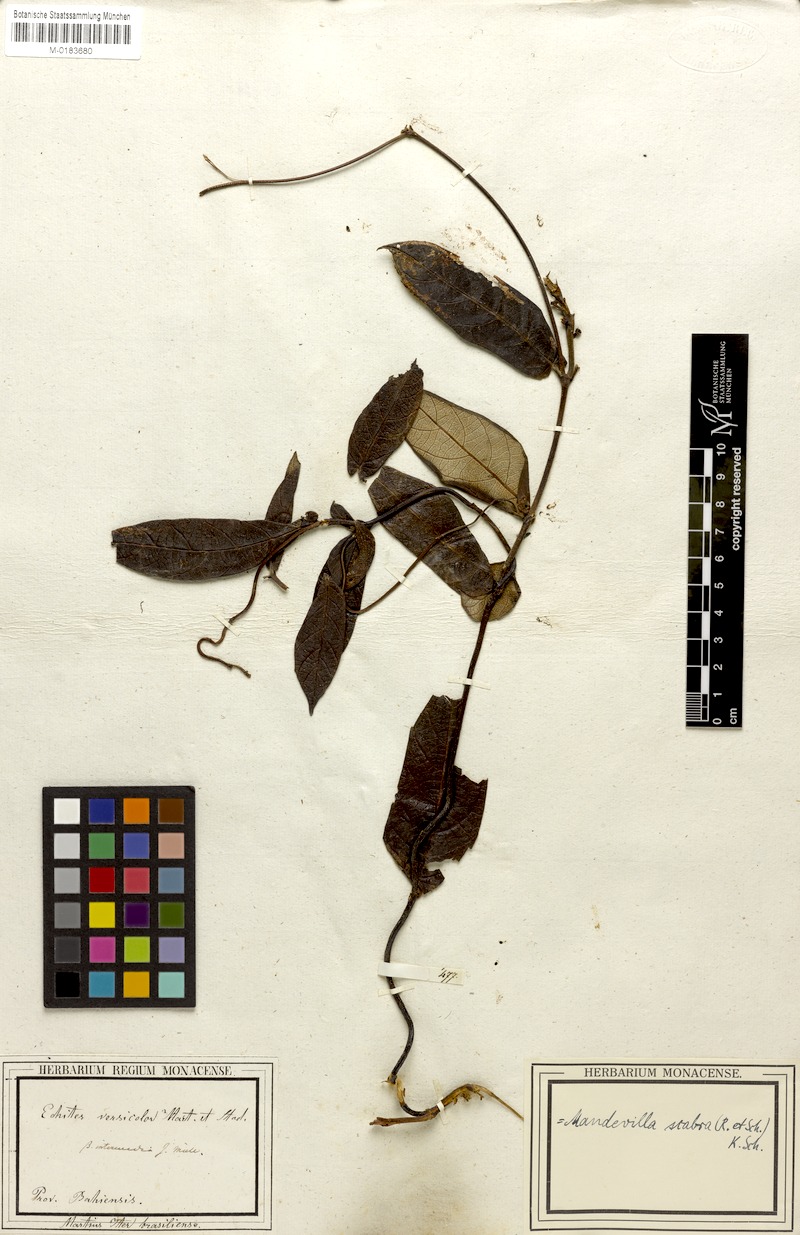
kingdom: Plantae
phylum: Tracheophyta
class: Magnoliopsida
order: Gentianales
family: Apocynaceae
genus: Mandevilla
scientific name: Mandevilla scabra
